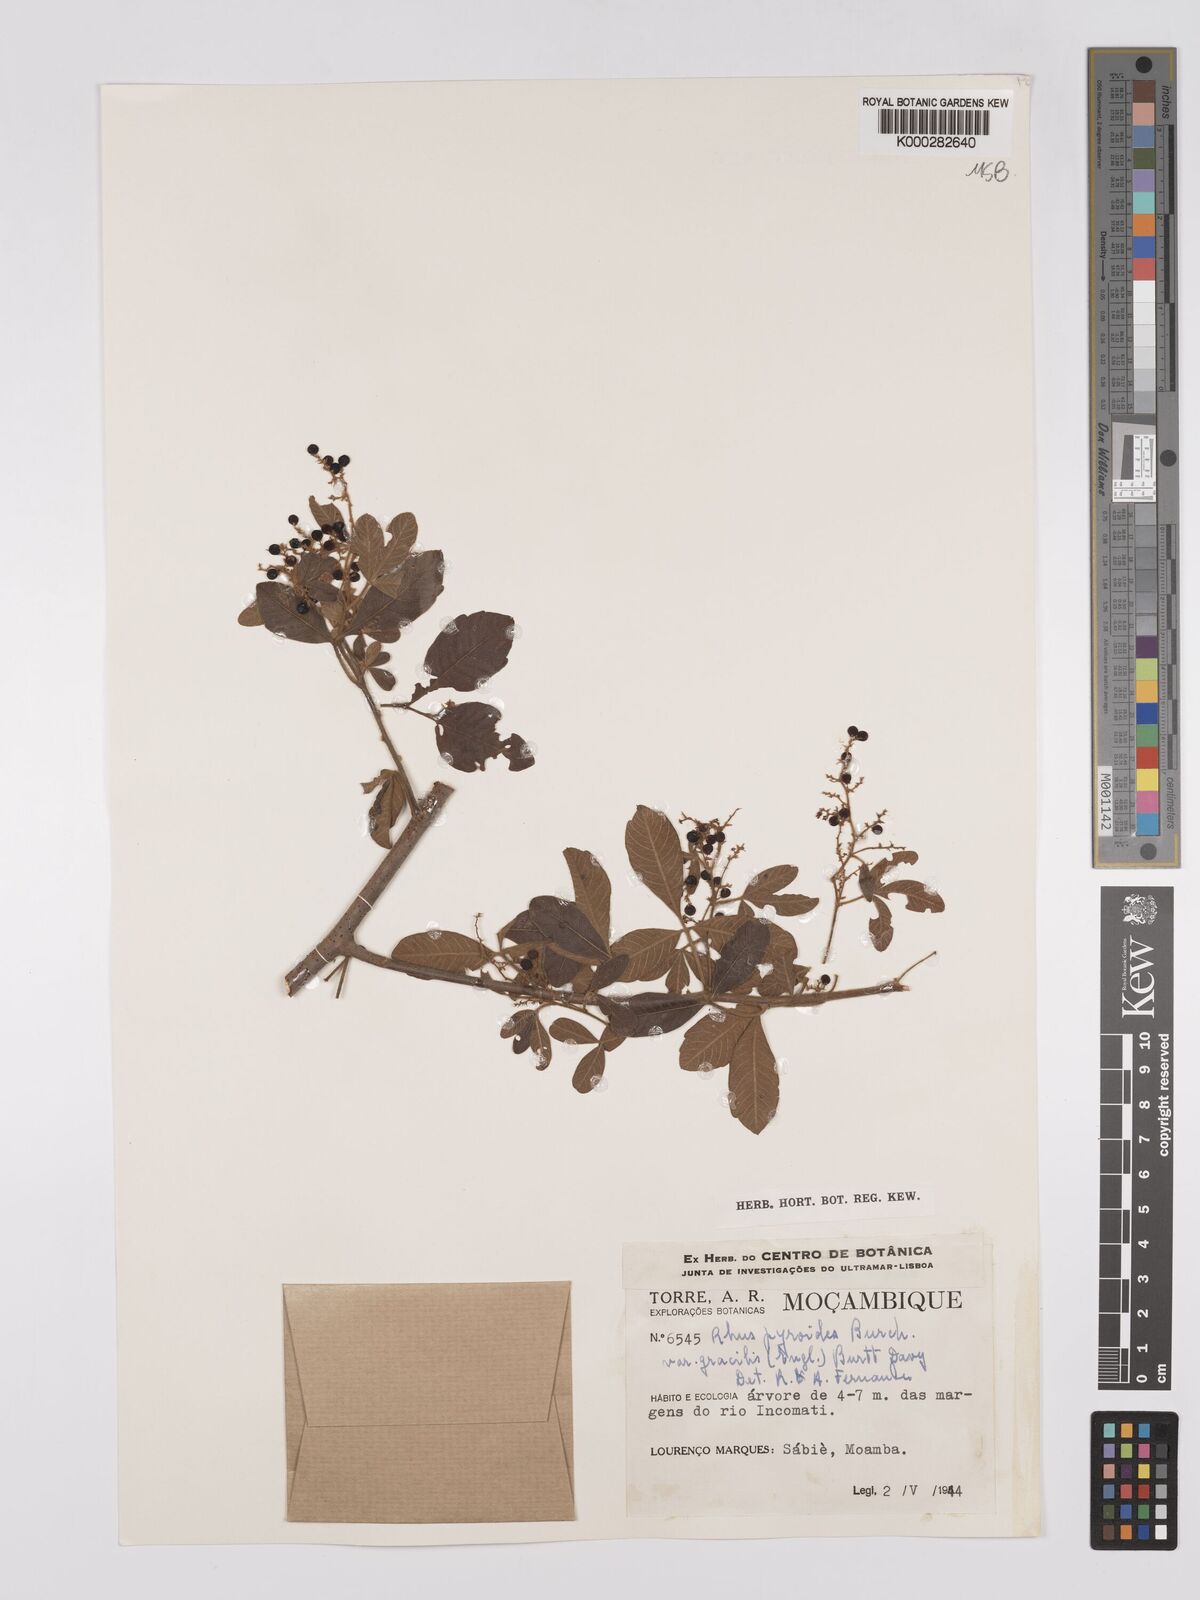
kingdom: Plantae
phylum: Tracheophyta
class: Magnoliopsida
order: Sapindales
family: Anacardiaceae
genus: Searsia
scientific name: Searsia pyroides
